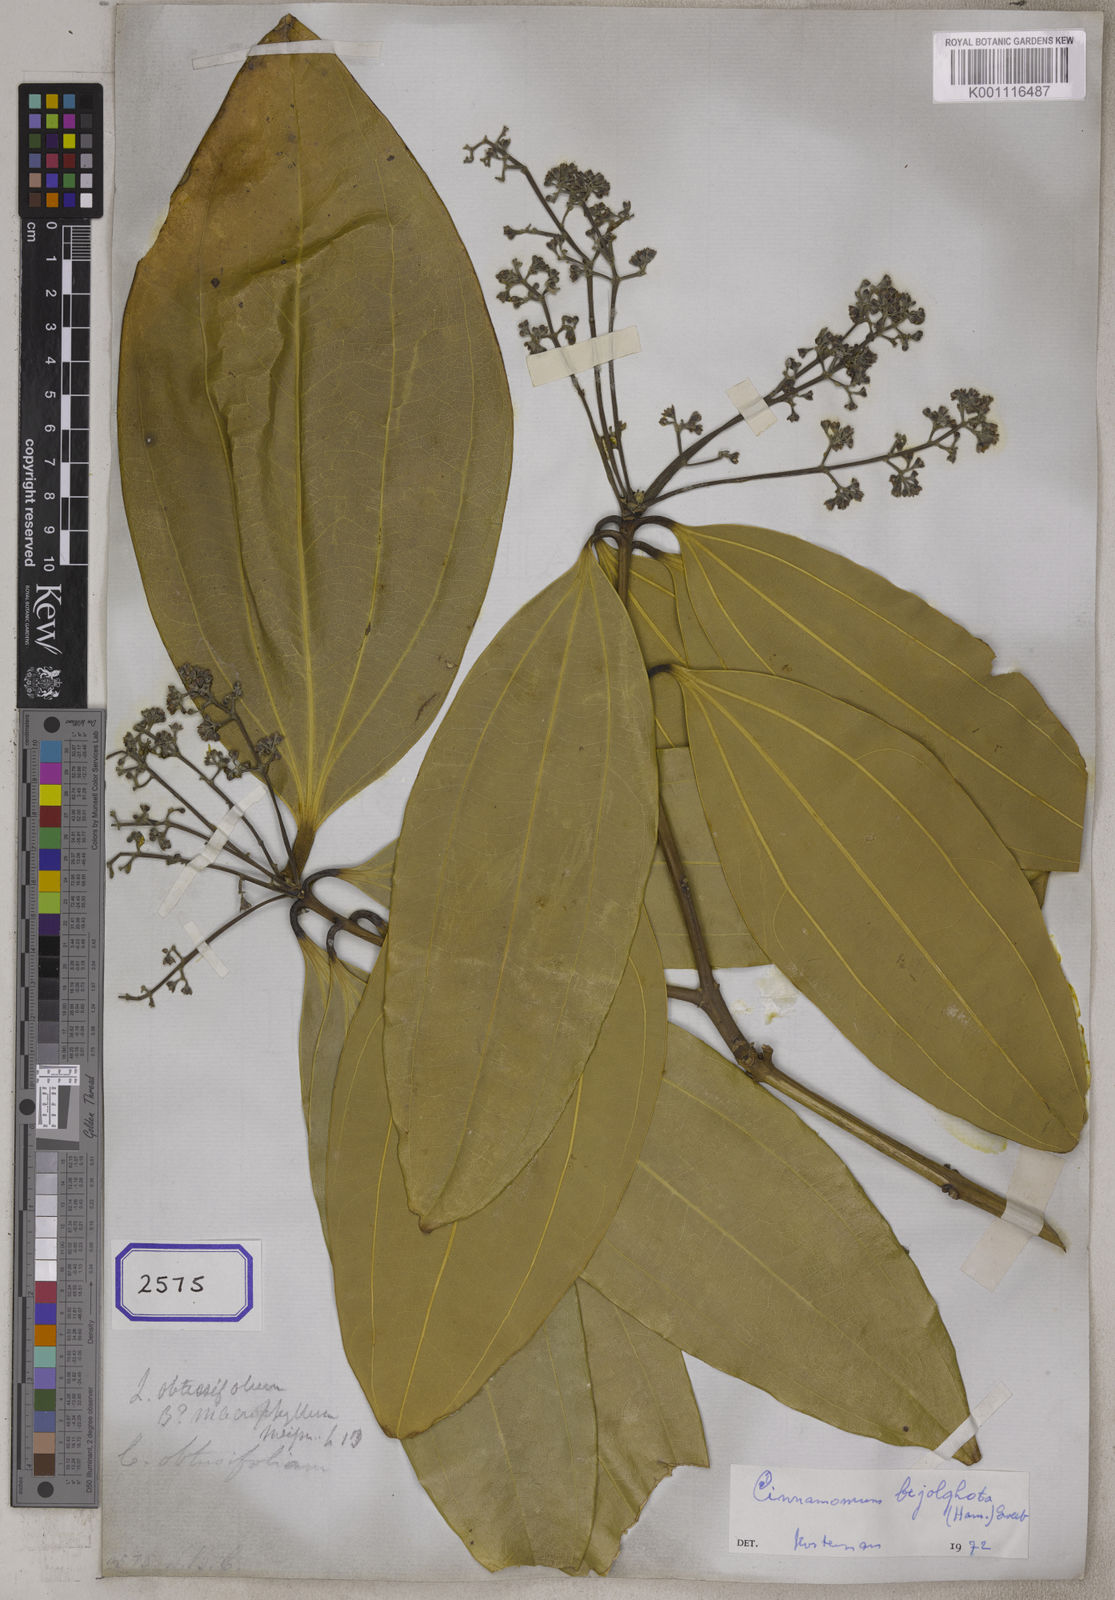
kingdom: Plantae
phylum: Tracheophyta
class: Magnoliopsida
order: Laurales
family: Lauraceae
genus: Cinnamomum
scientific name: Cinnamomum bejolghota
